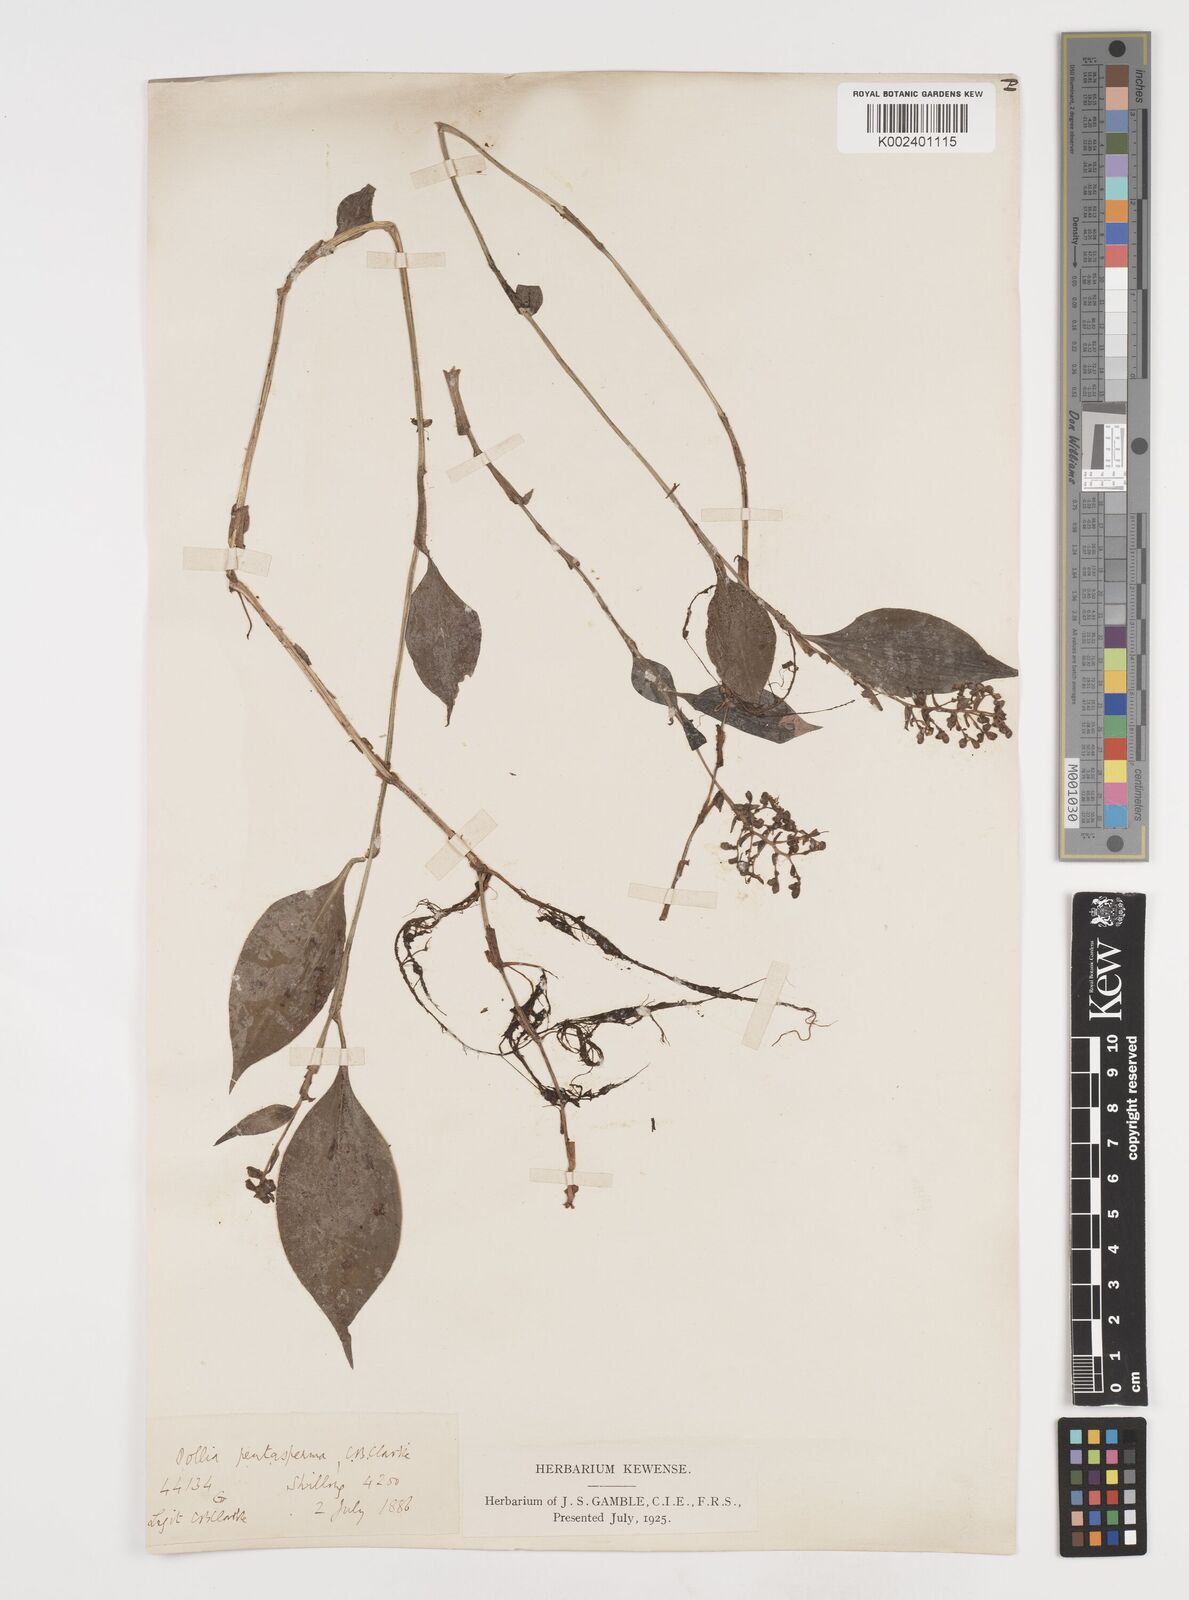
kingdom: Plantae
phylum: Tracheophyta
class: Liliopsida
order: Commelinales
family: Commelinaceae
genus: Pollia
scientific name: Pollia pentasperma
